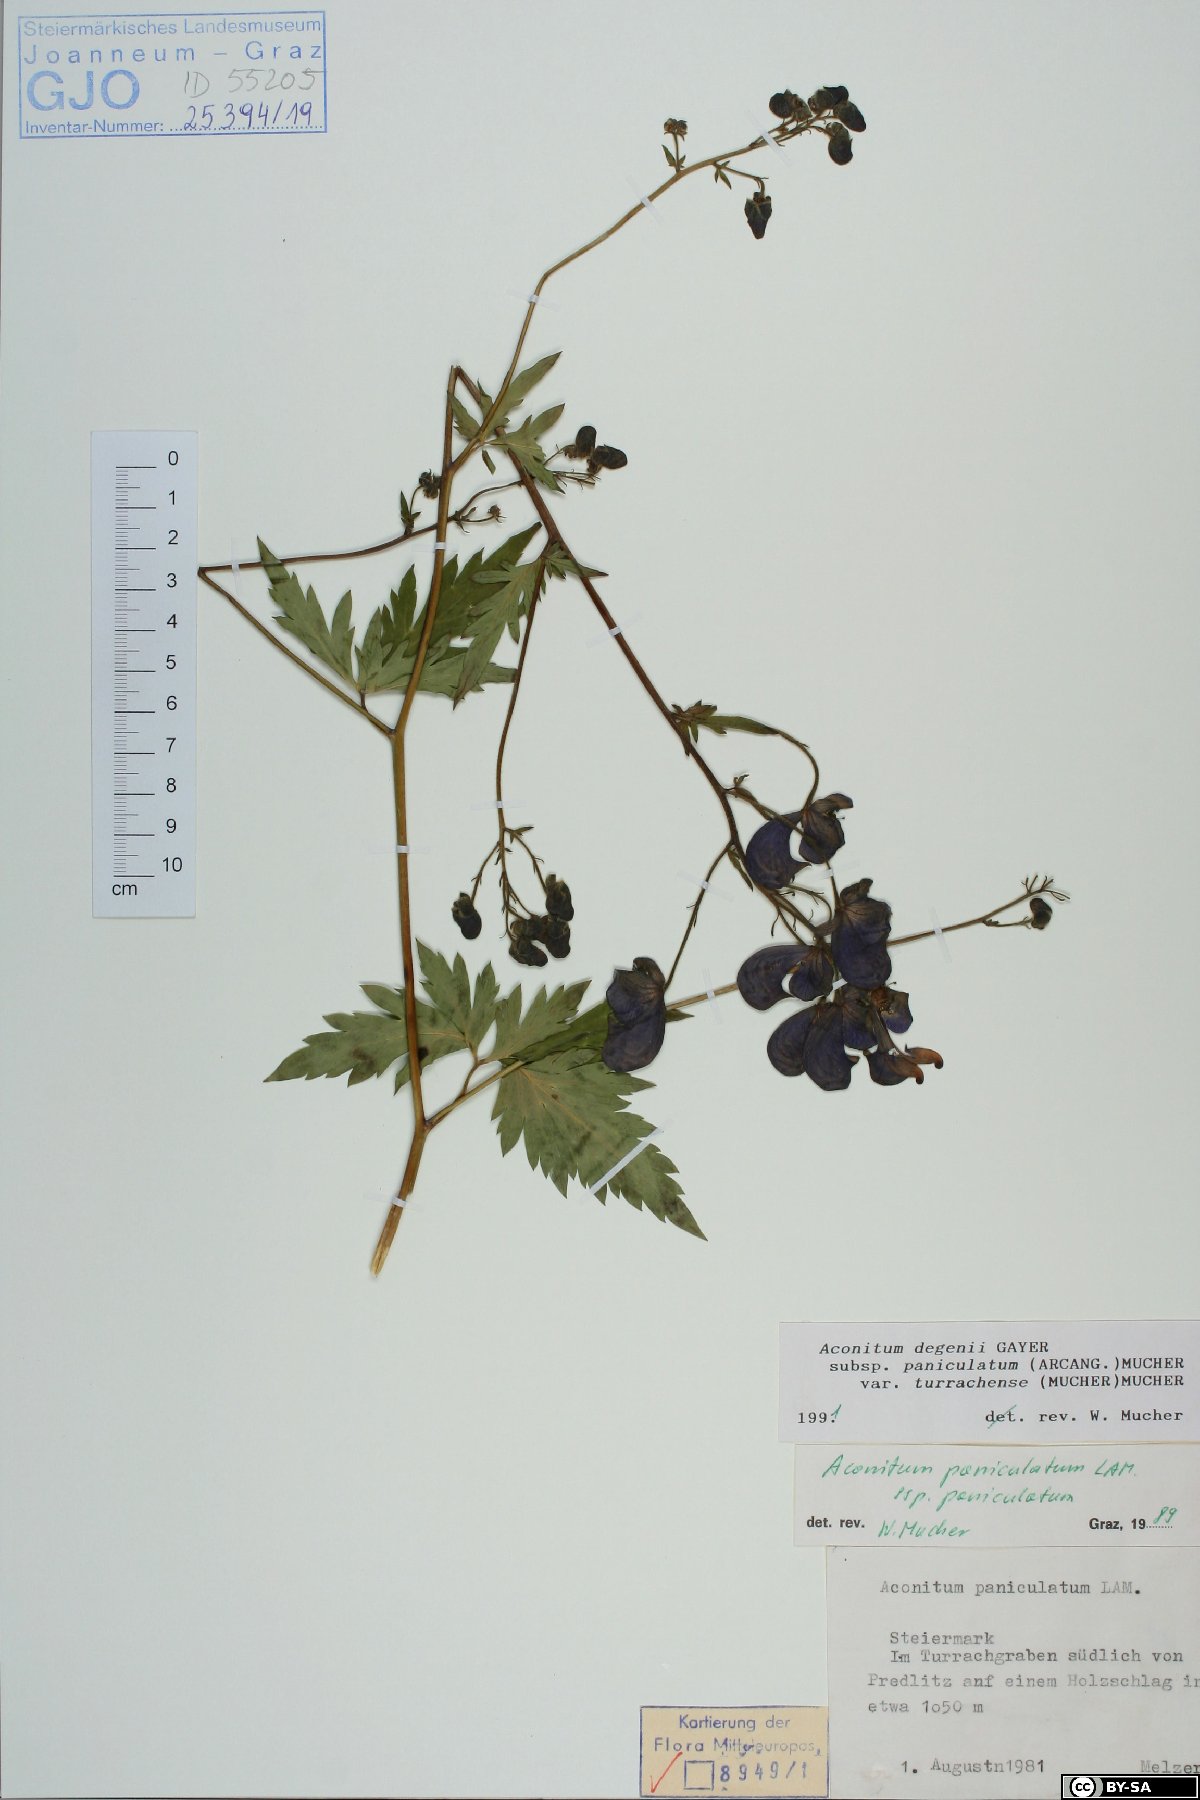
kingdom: Plantae
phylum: Tracheophyta
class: Magnoliopsida
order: Ranunculales
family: Ranunculaceae
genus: Aconitum
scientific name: Aconitum degenii
